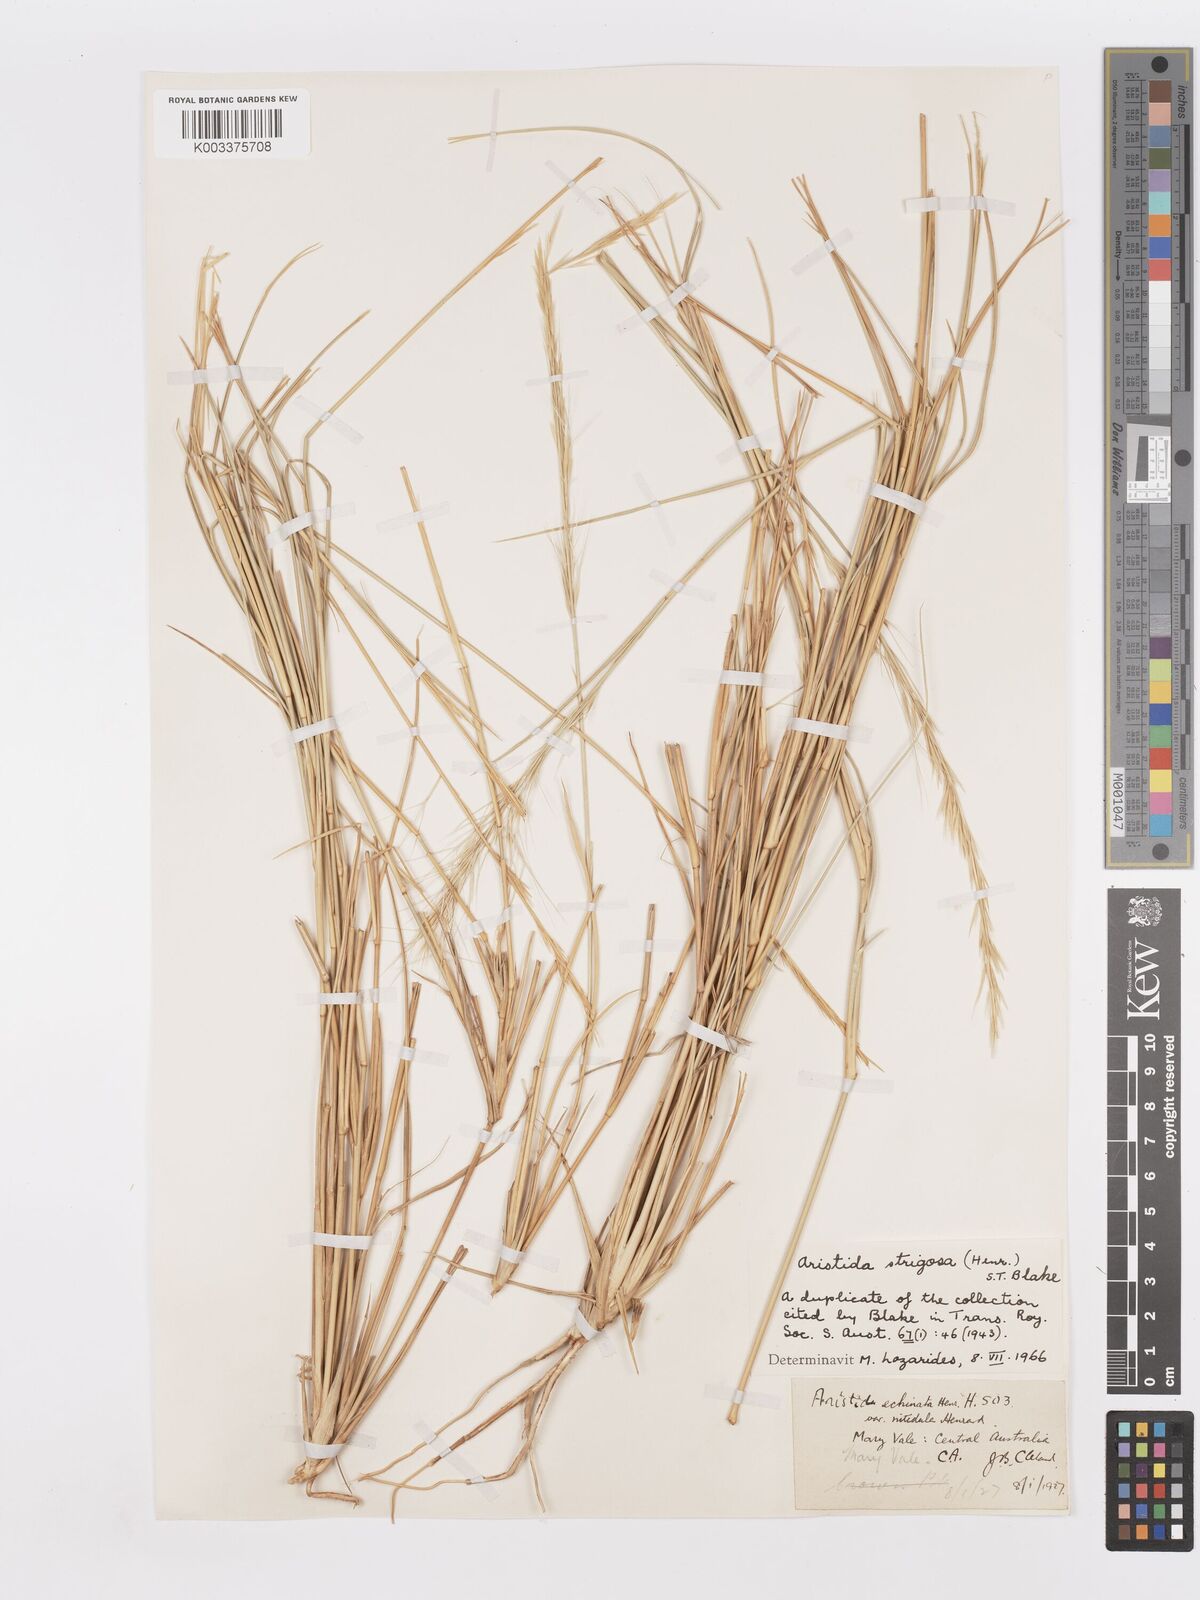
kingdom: Plantae
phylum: Tracheophyta
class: Liliopsida
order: Poales
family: Poaceae
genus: Aristida
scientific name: Aristida strigosa
